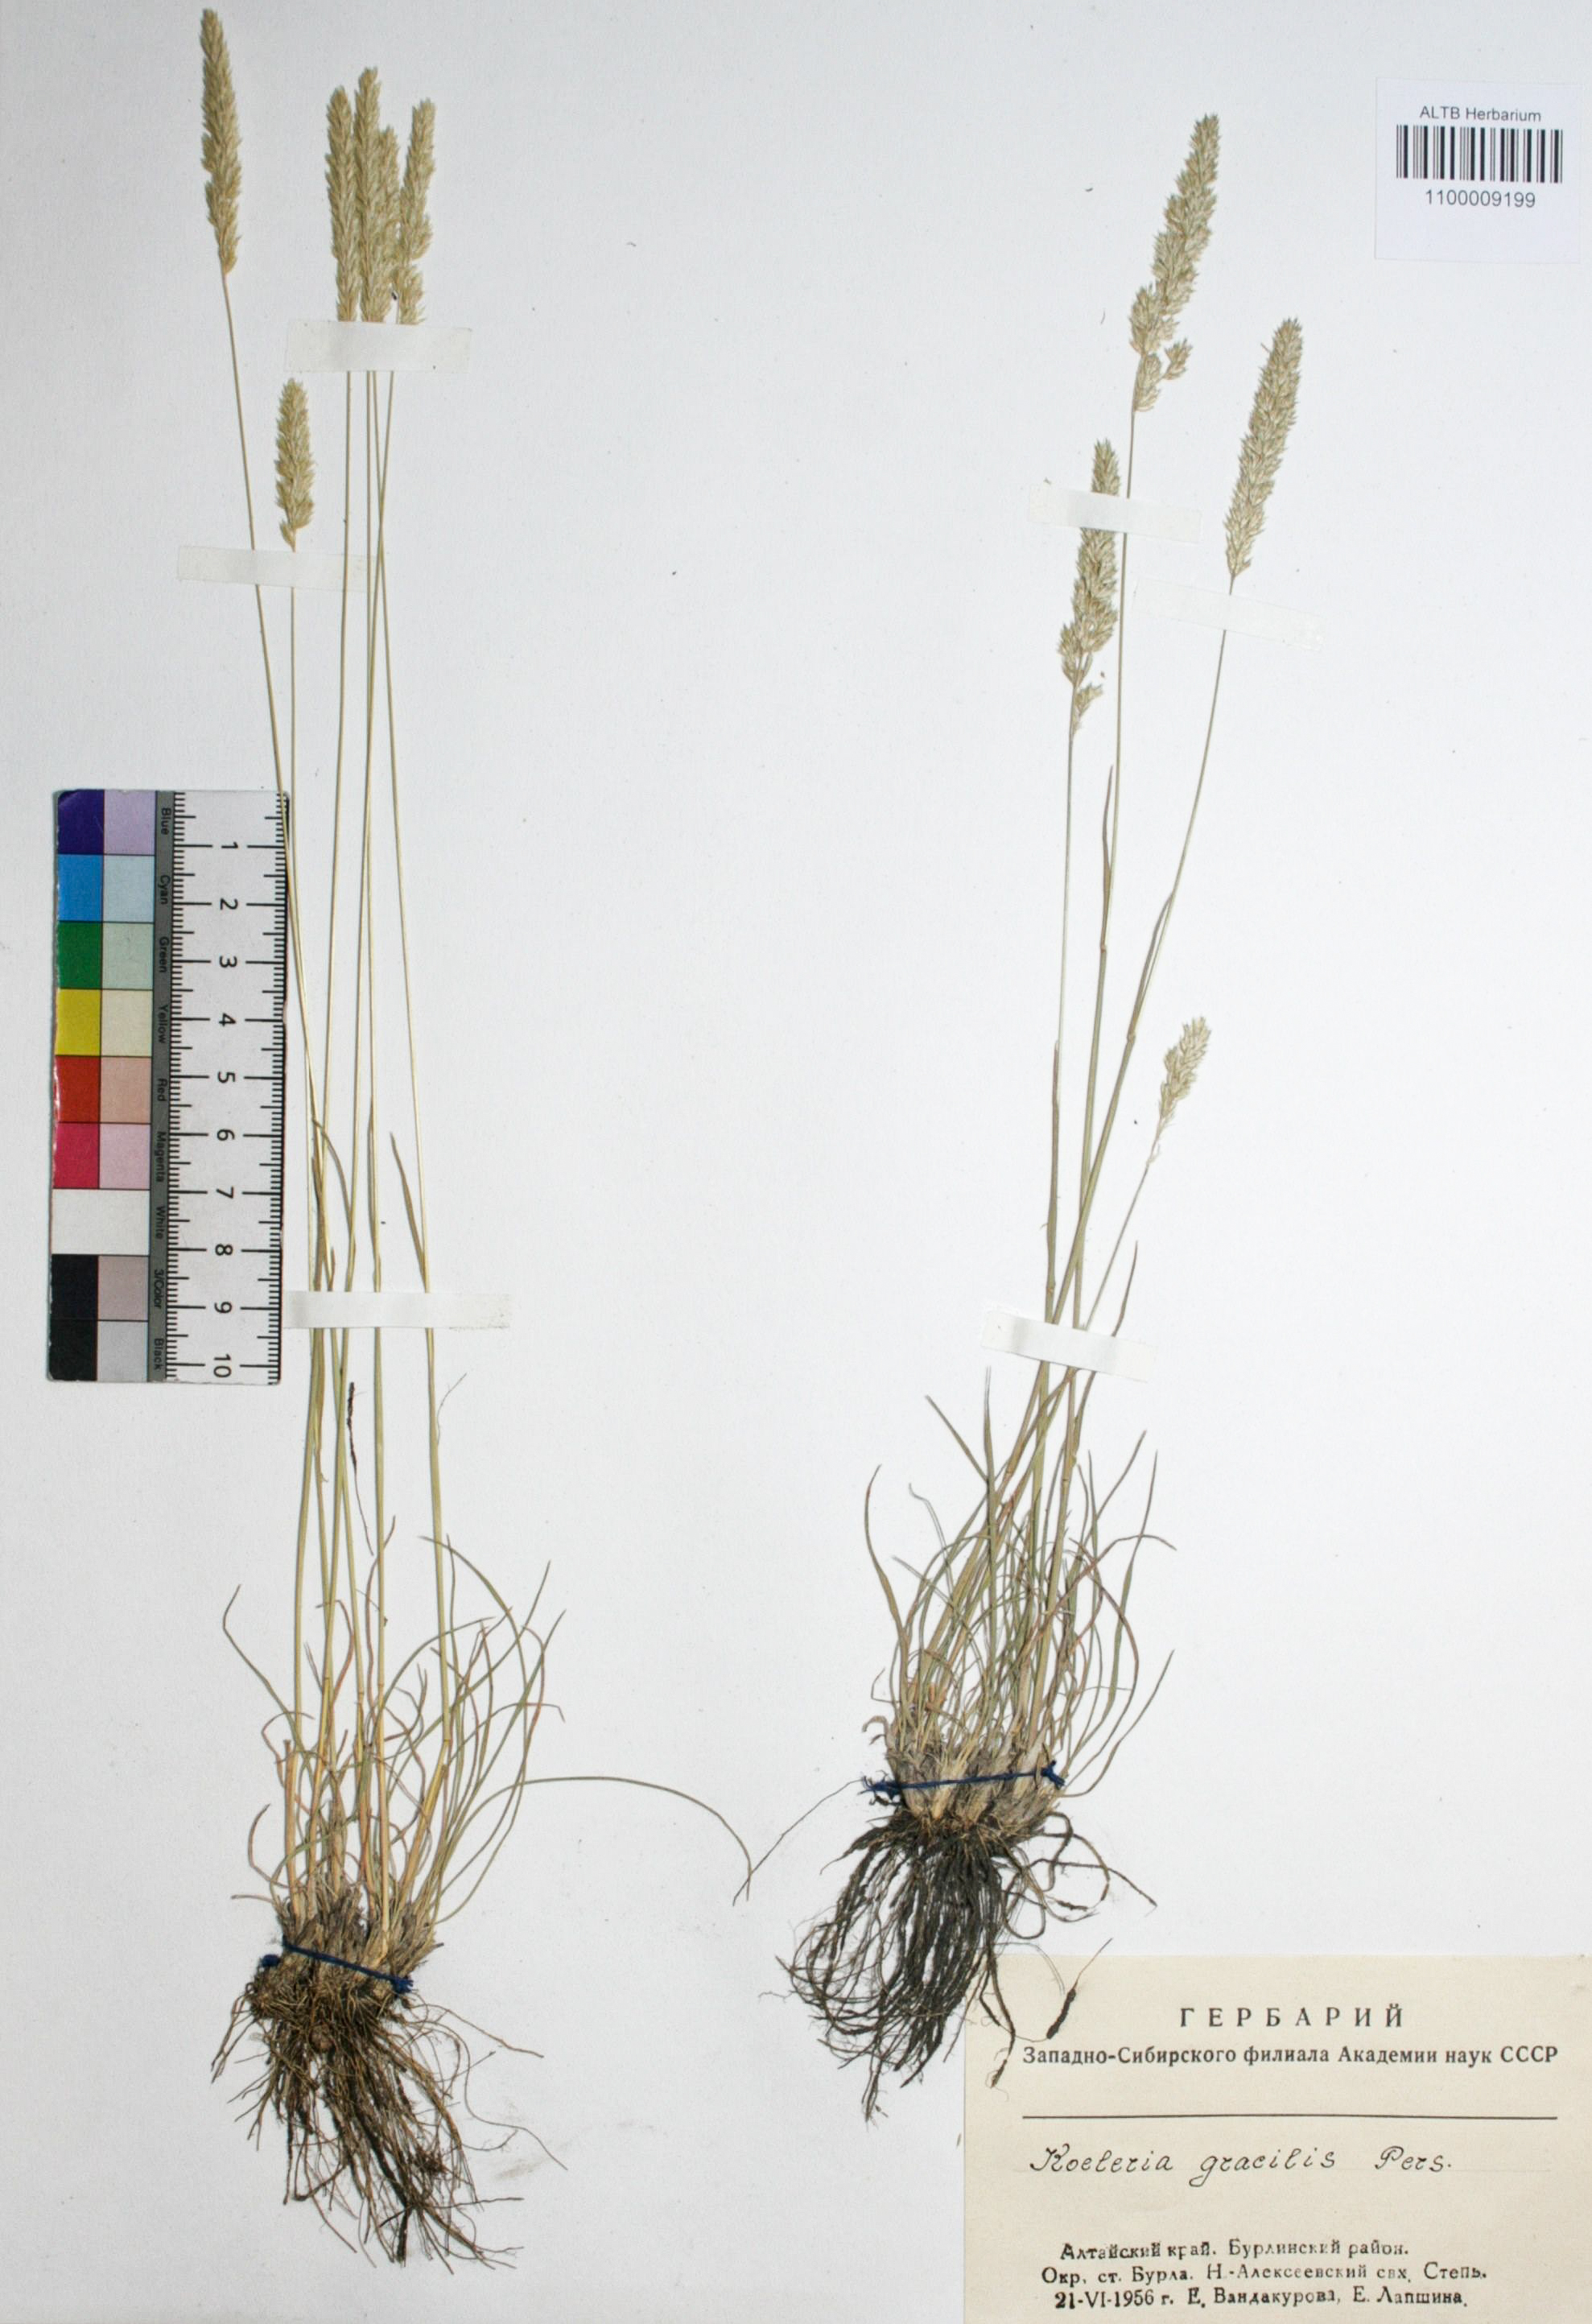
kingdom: Plantae
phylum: Tracheophyta
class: Liliopsida
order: Poales
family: Poaceae
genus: Koeleria
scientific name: Koeleria macrantha
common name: Crested hair-grass
